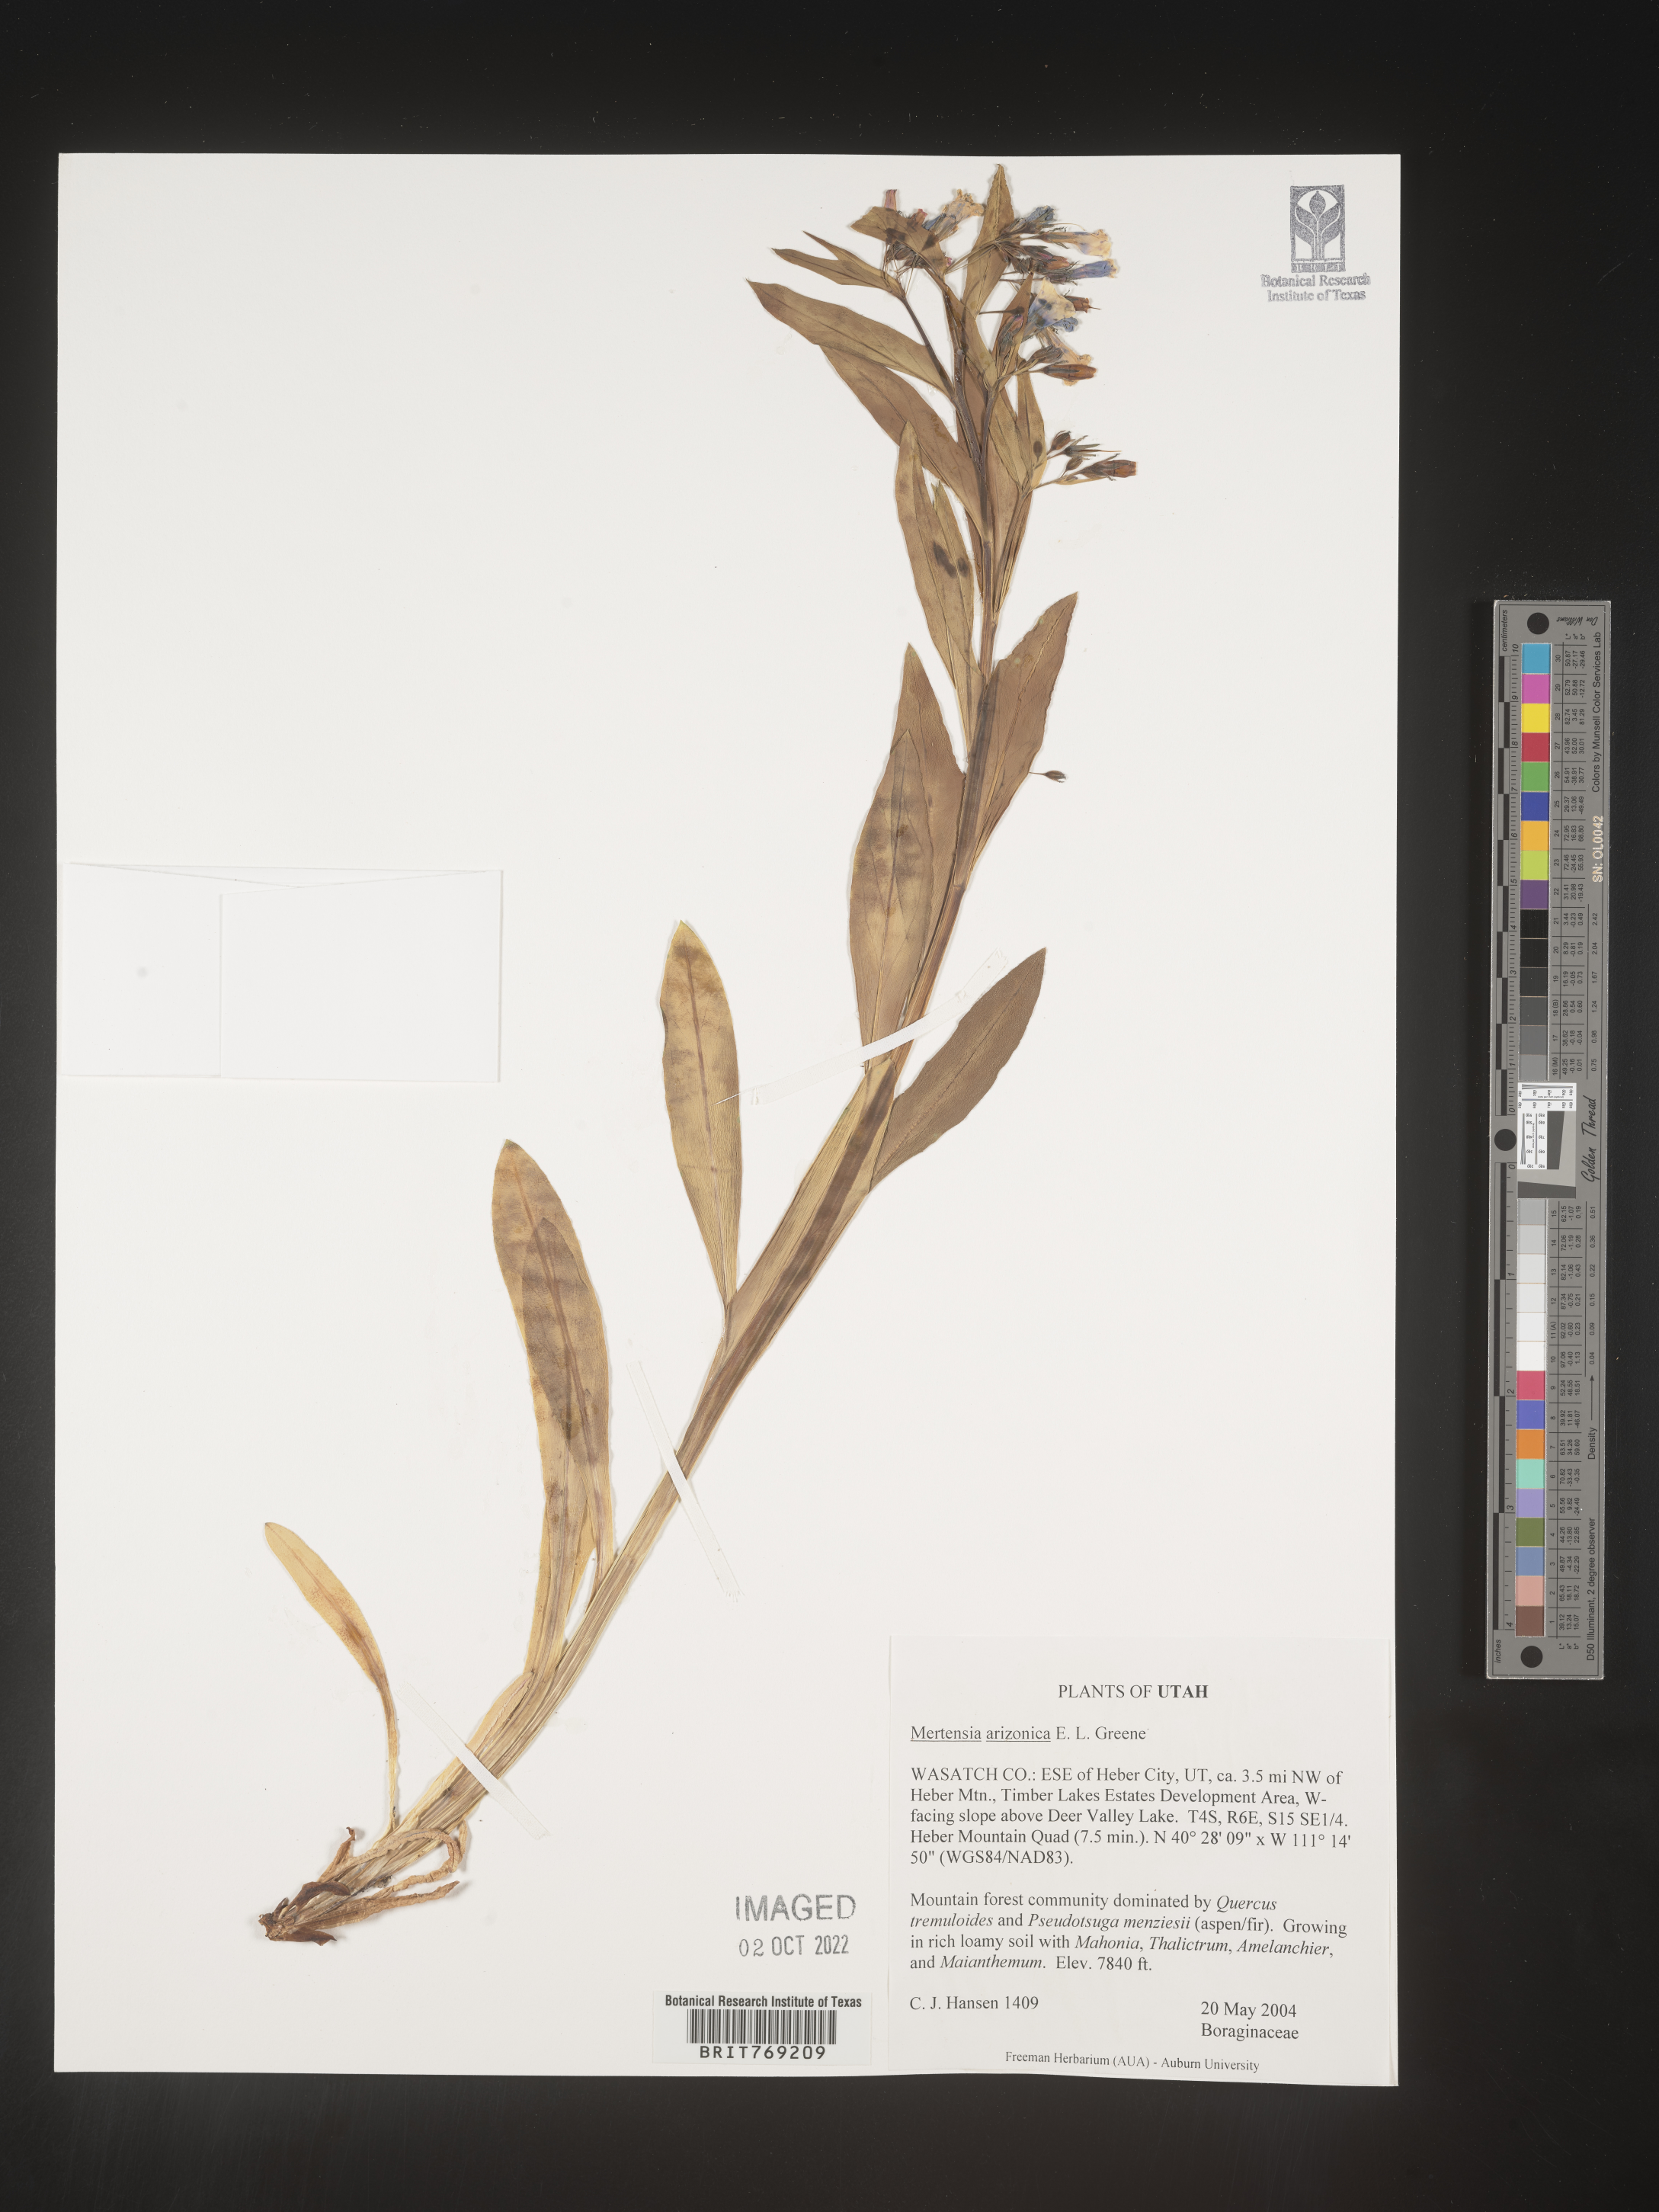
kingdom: Plantae
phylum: Tracheophyta
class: Magnoliopsida
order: Boraginales
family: Boraginaceae
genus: Mertensia
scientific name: Mertensia
